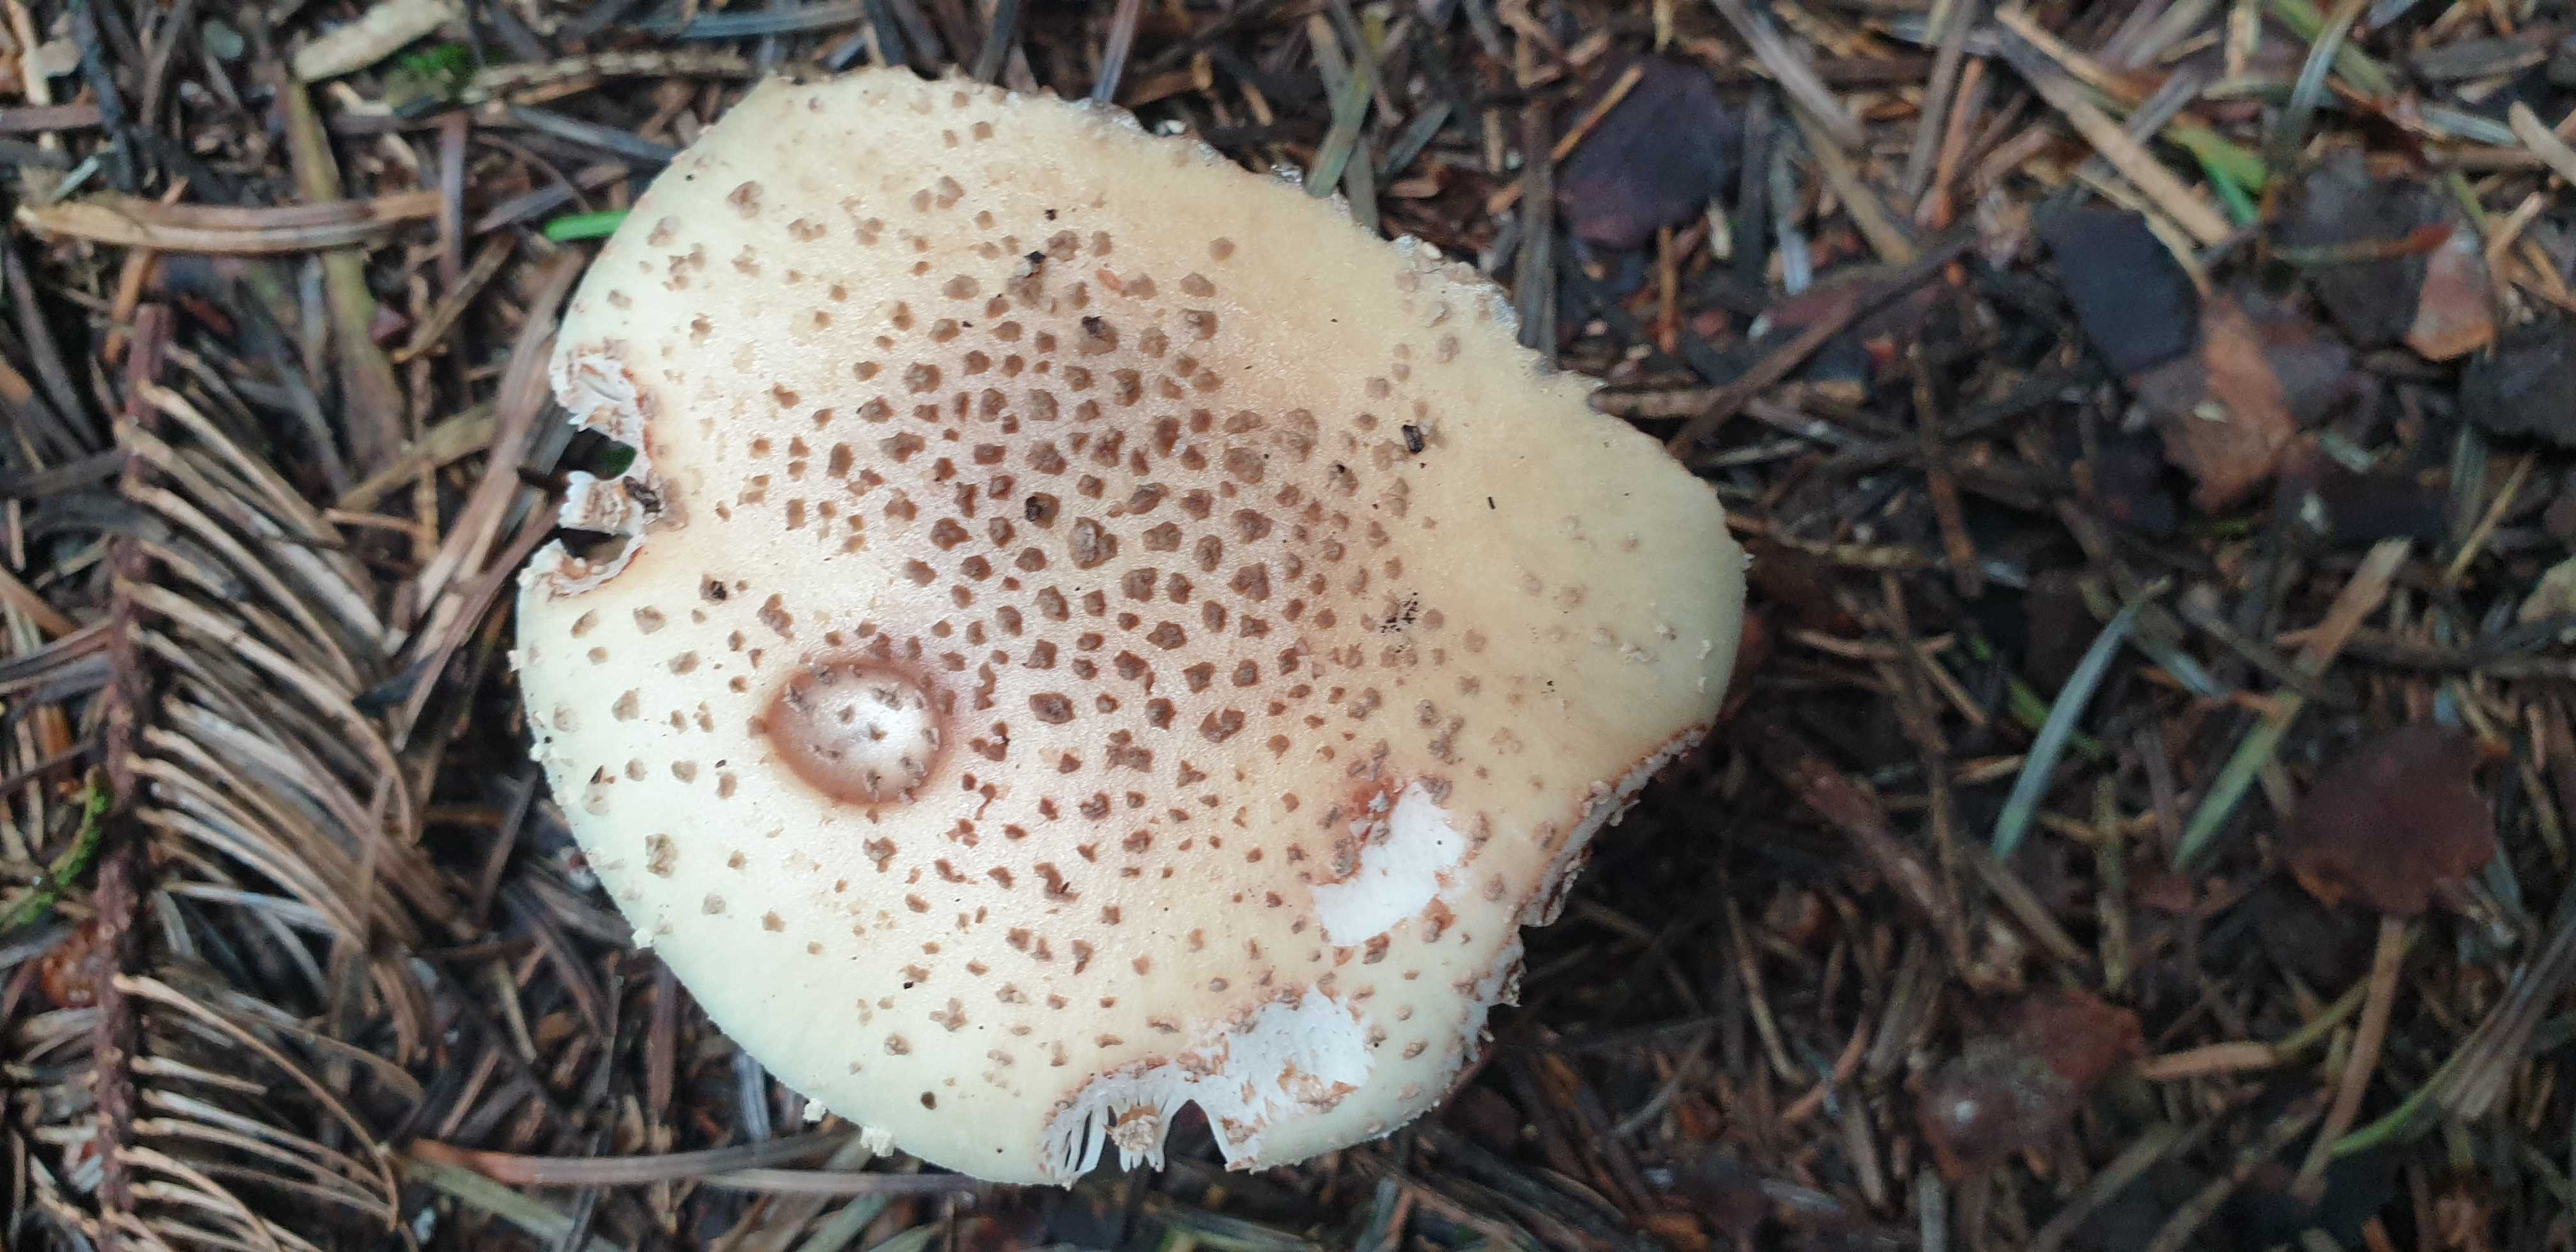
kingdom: Fungi
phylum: Basidiomycota
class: Agaricomycetes
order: Agaricales
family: Amanitaceae
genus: Amanita
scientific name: Amanita rubescens
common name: rødmende fluesvamp
